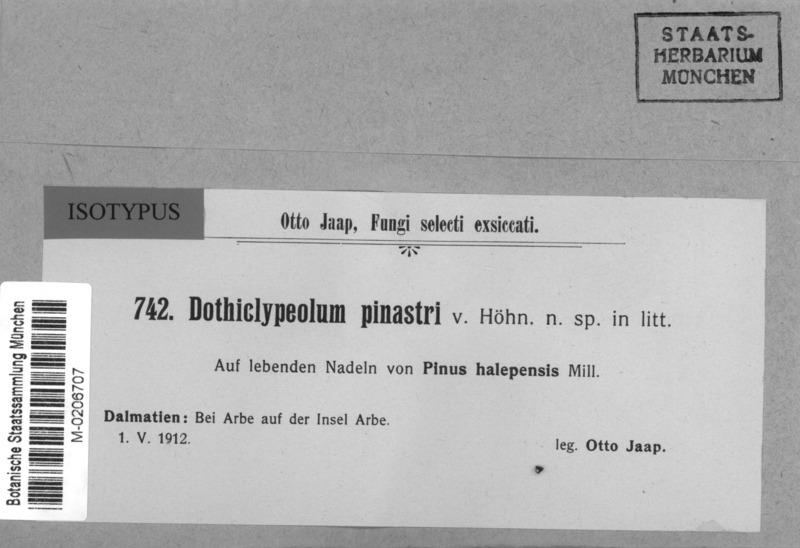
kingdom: Fungi
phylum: Ascomycota
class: Dothideomycetes
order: Asterinales
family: Asterinaceae
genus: Thyriopsis
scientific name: Thyriopsis halepensis
